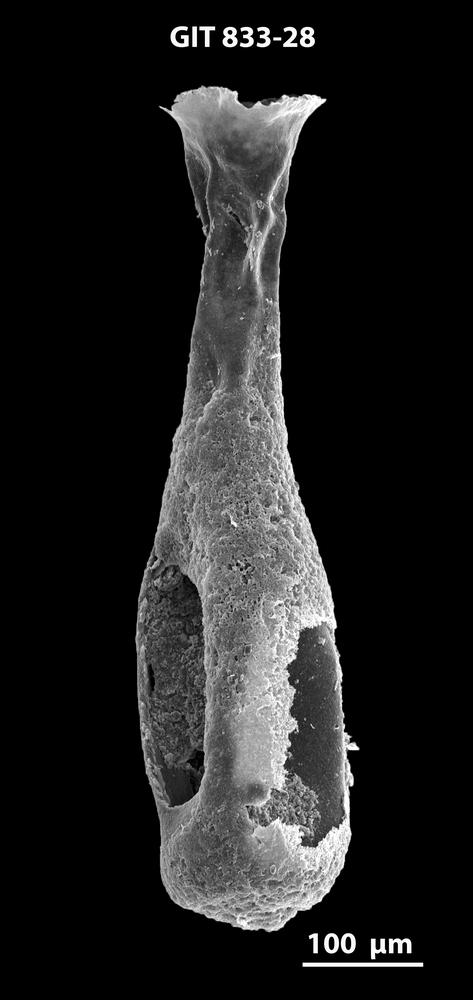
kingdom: Animalia
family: Lagenochitinidae
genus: Lagenochitina
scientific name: Lagenochitina megaesthonica
